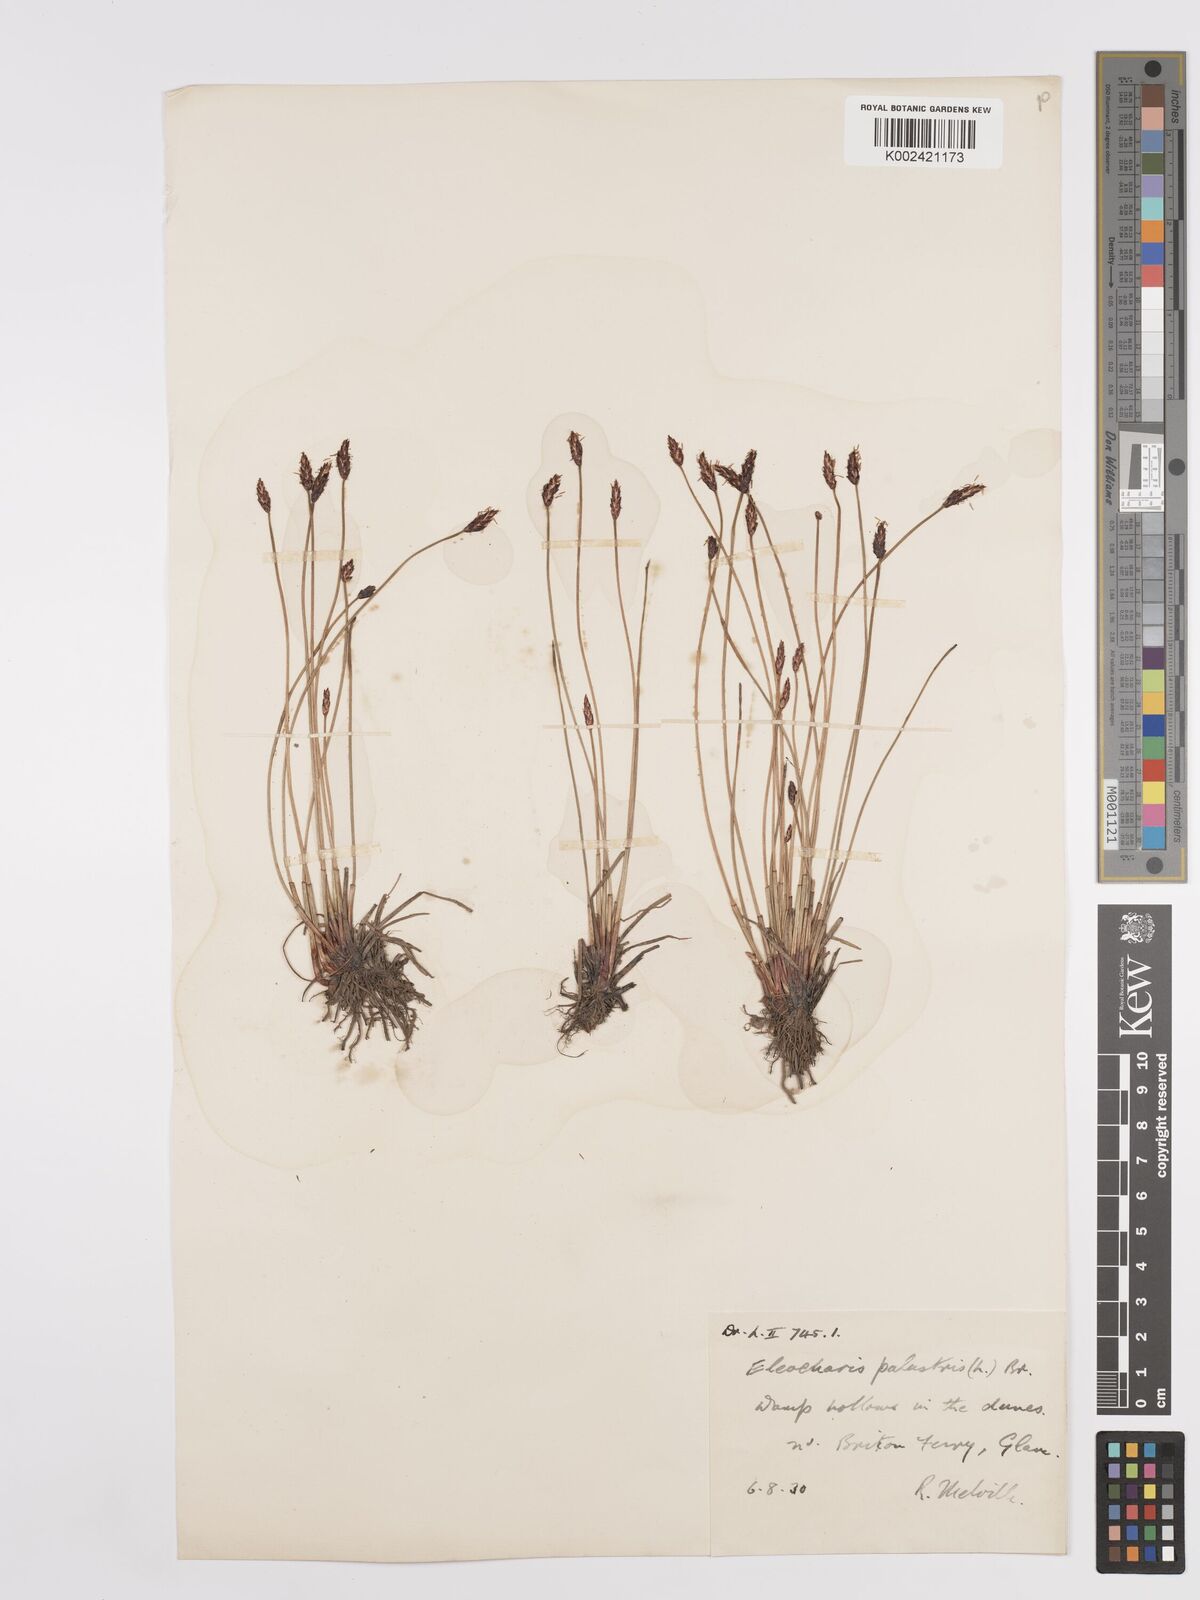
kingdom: Plantae
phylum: Tracheophyta
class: Liliopsida
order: Poales
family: Cyperaceae
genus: Eleocharis
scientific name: Eleocharis palustris
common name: Common spike-rush
